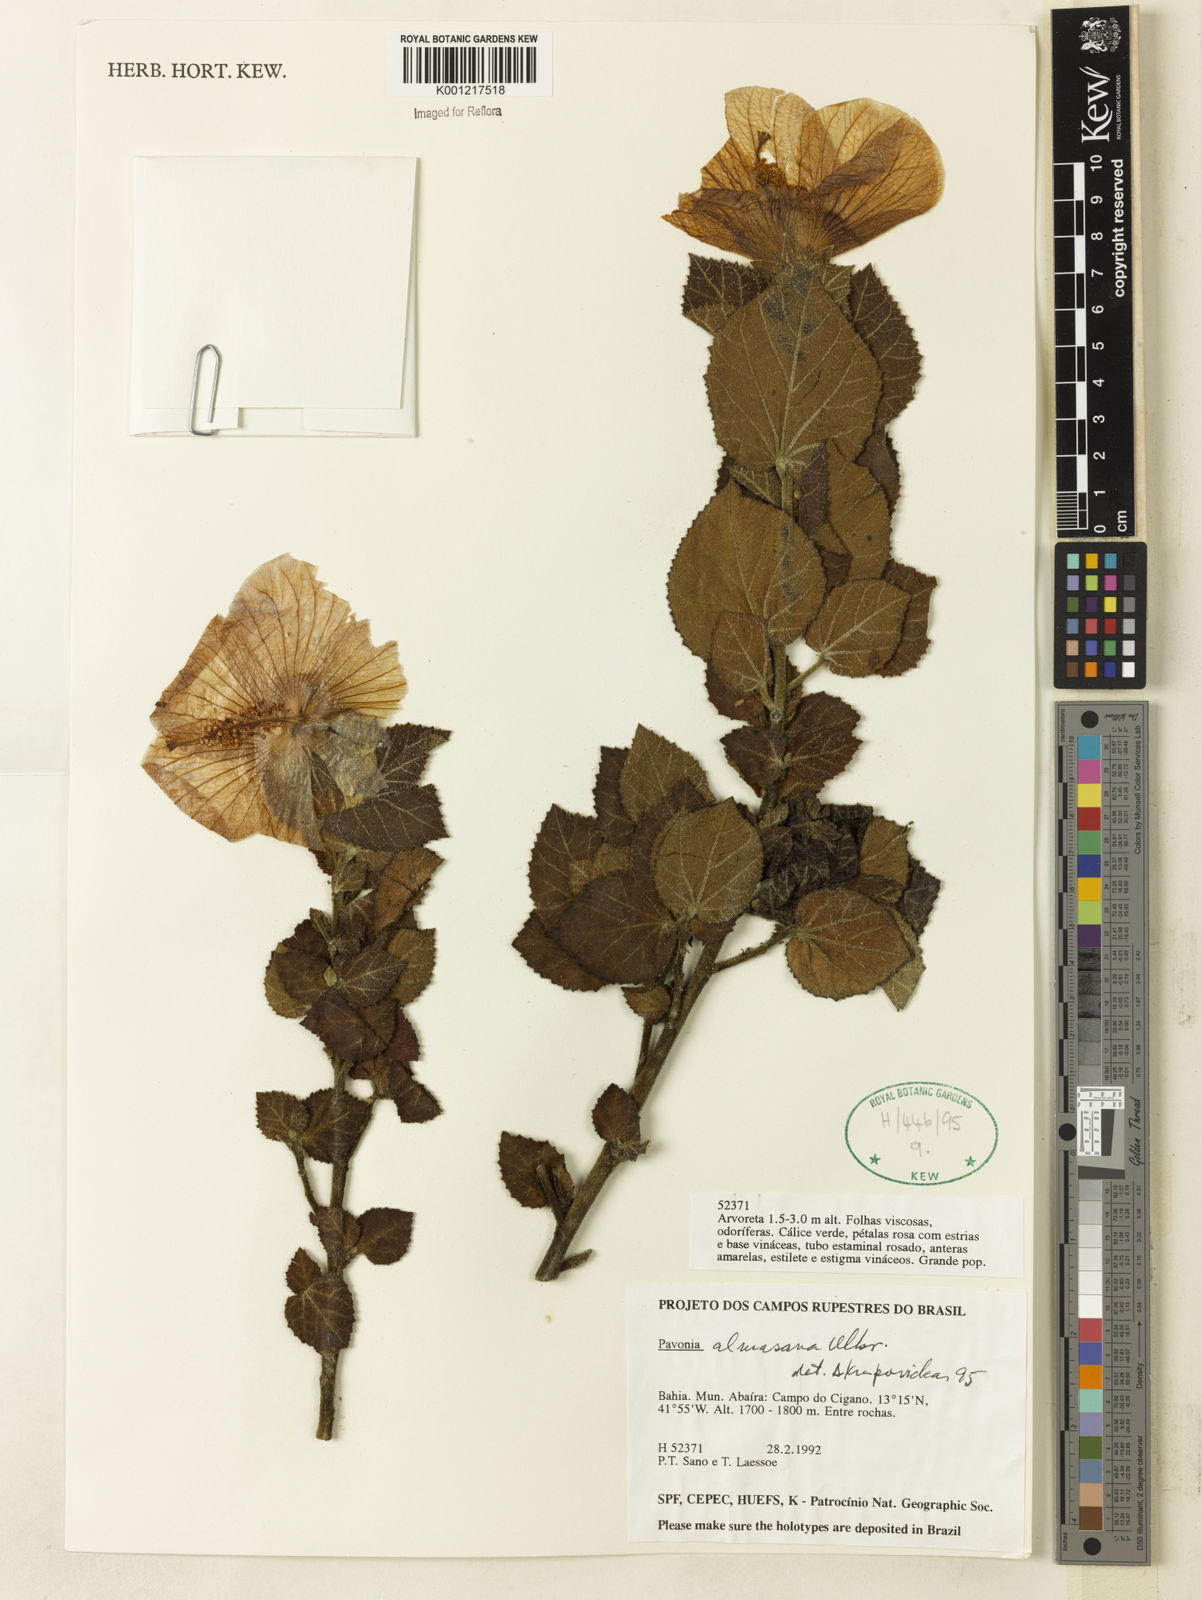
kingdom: Plantae
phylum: Tracheophyta
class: Magnoliopsida
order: Malvales
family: Malvaceae
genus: Pavonia
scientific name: Pavonia almasana
